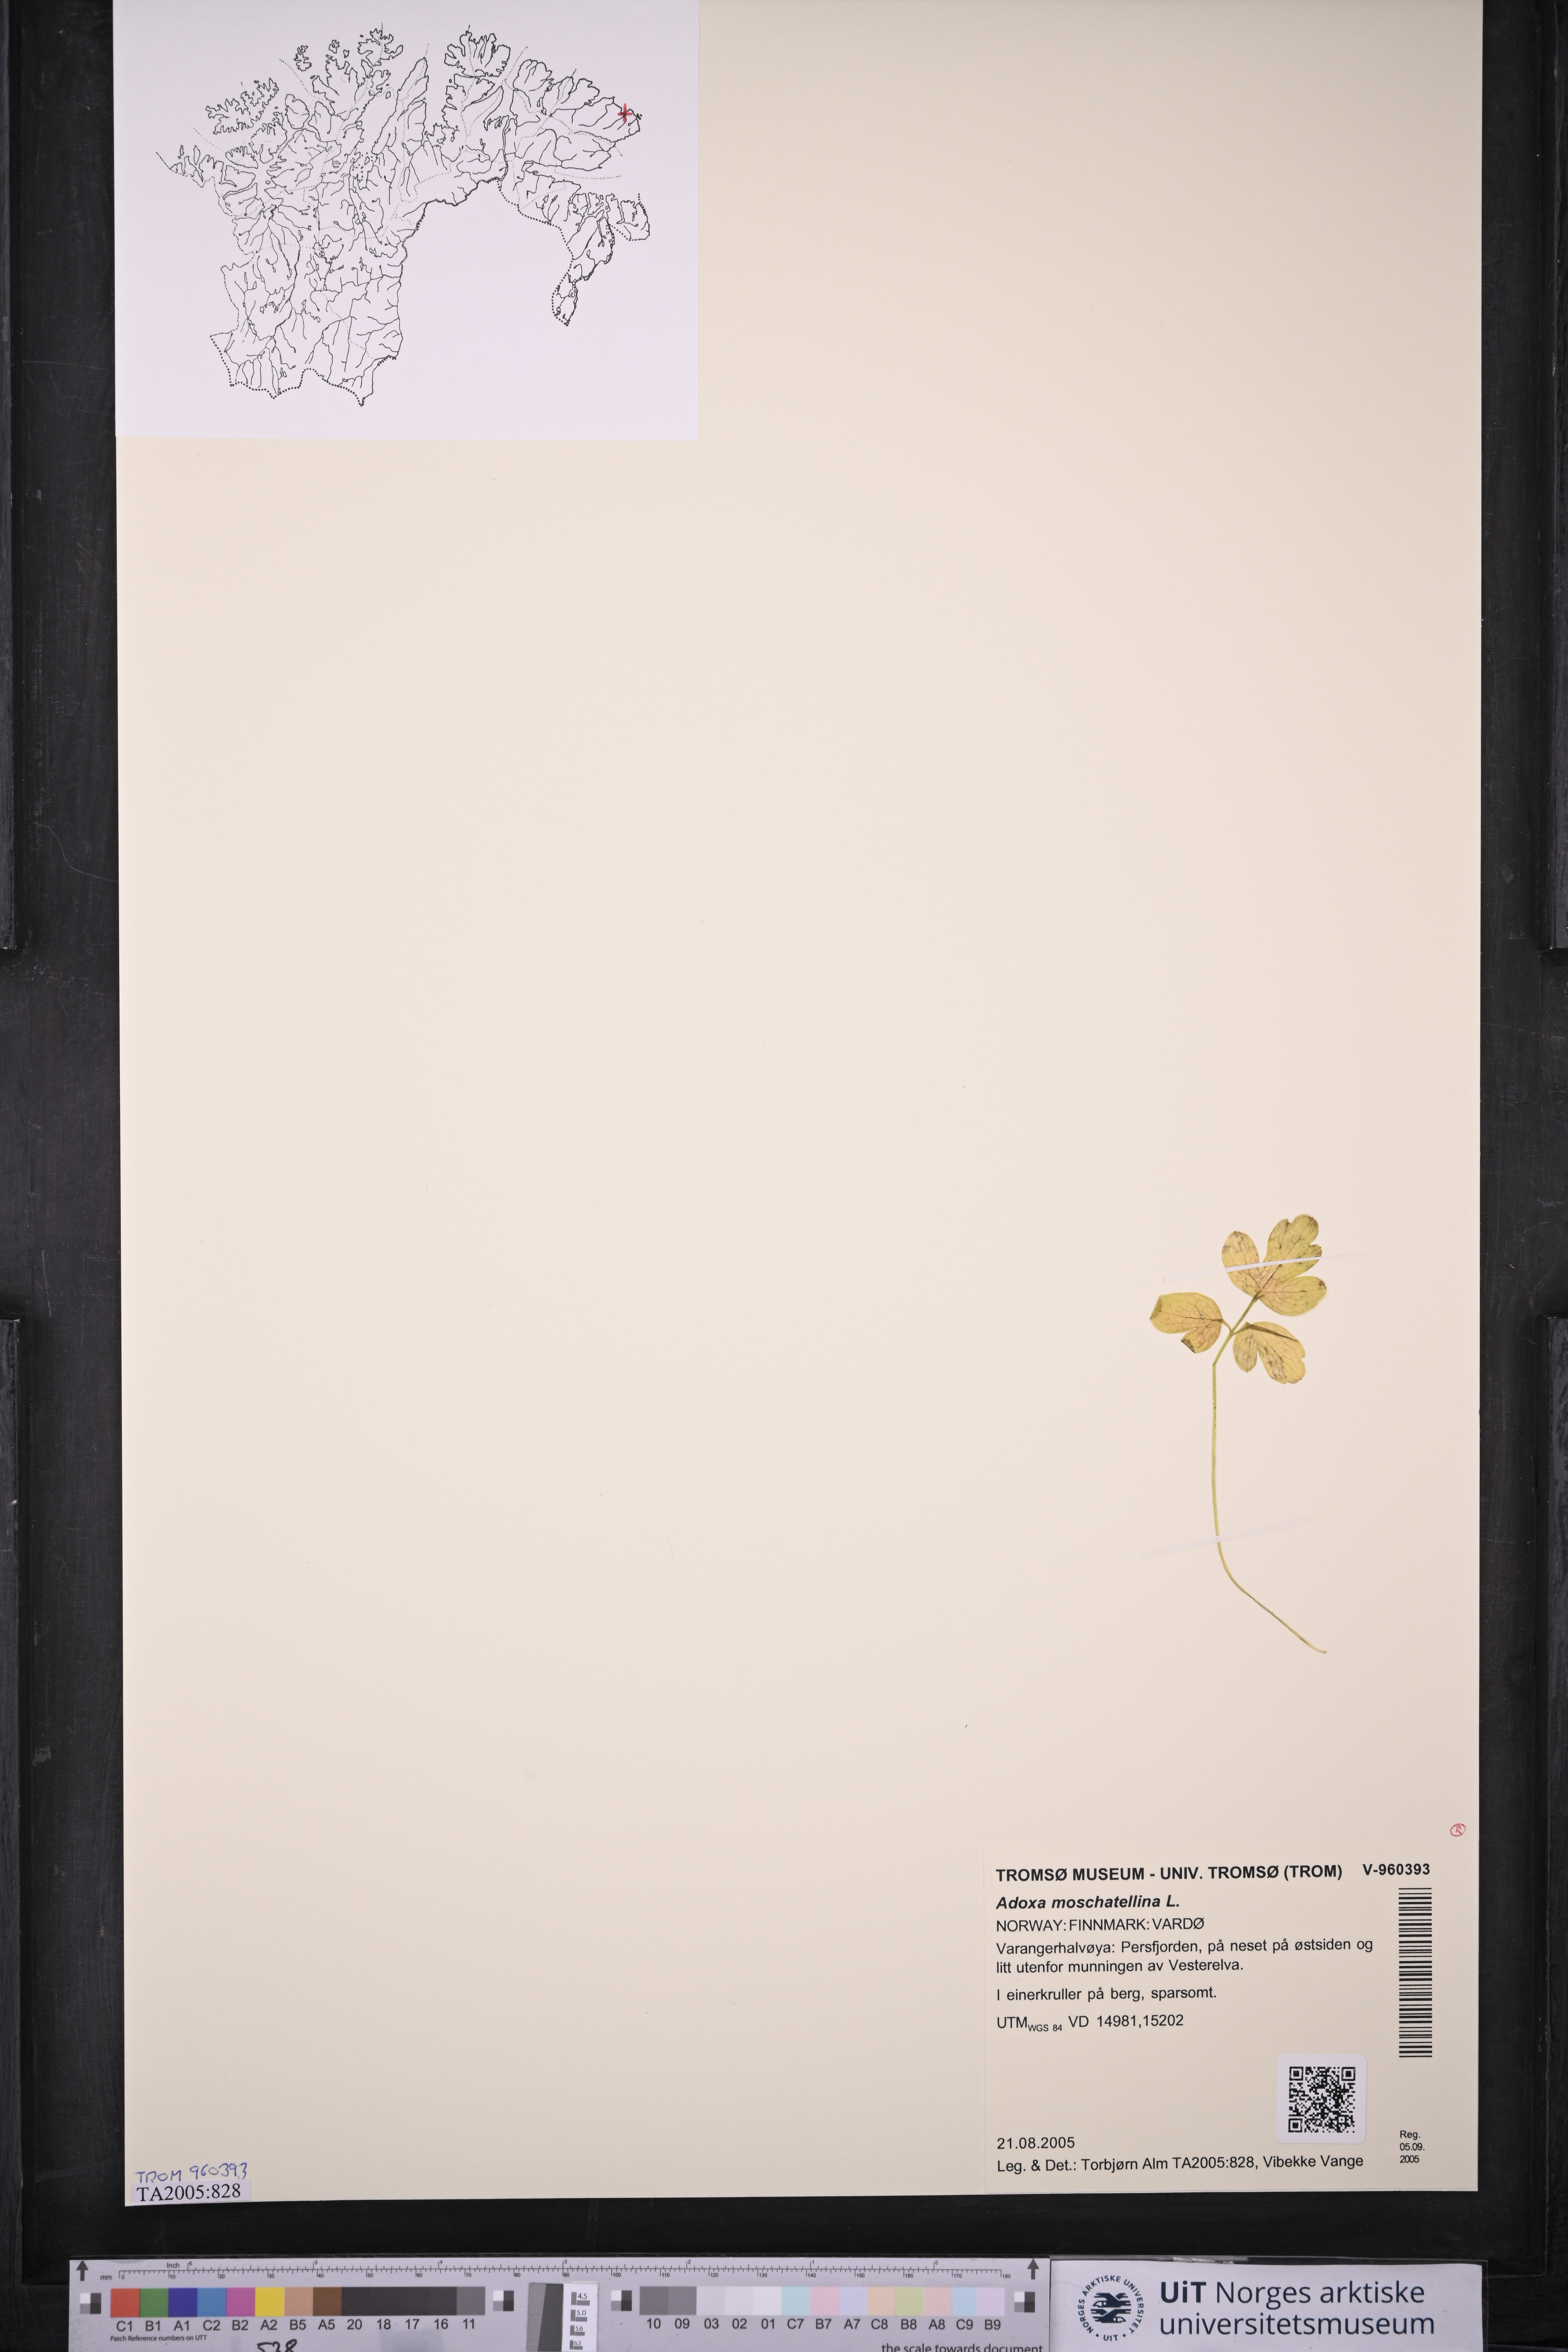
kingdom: Plantae
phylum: Tracheophyta
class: Magnoliopsida
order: Dipsacales
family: Viburnaceae
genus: Adoxa
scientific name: Adoxa moschatellina
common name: Moschatel
